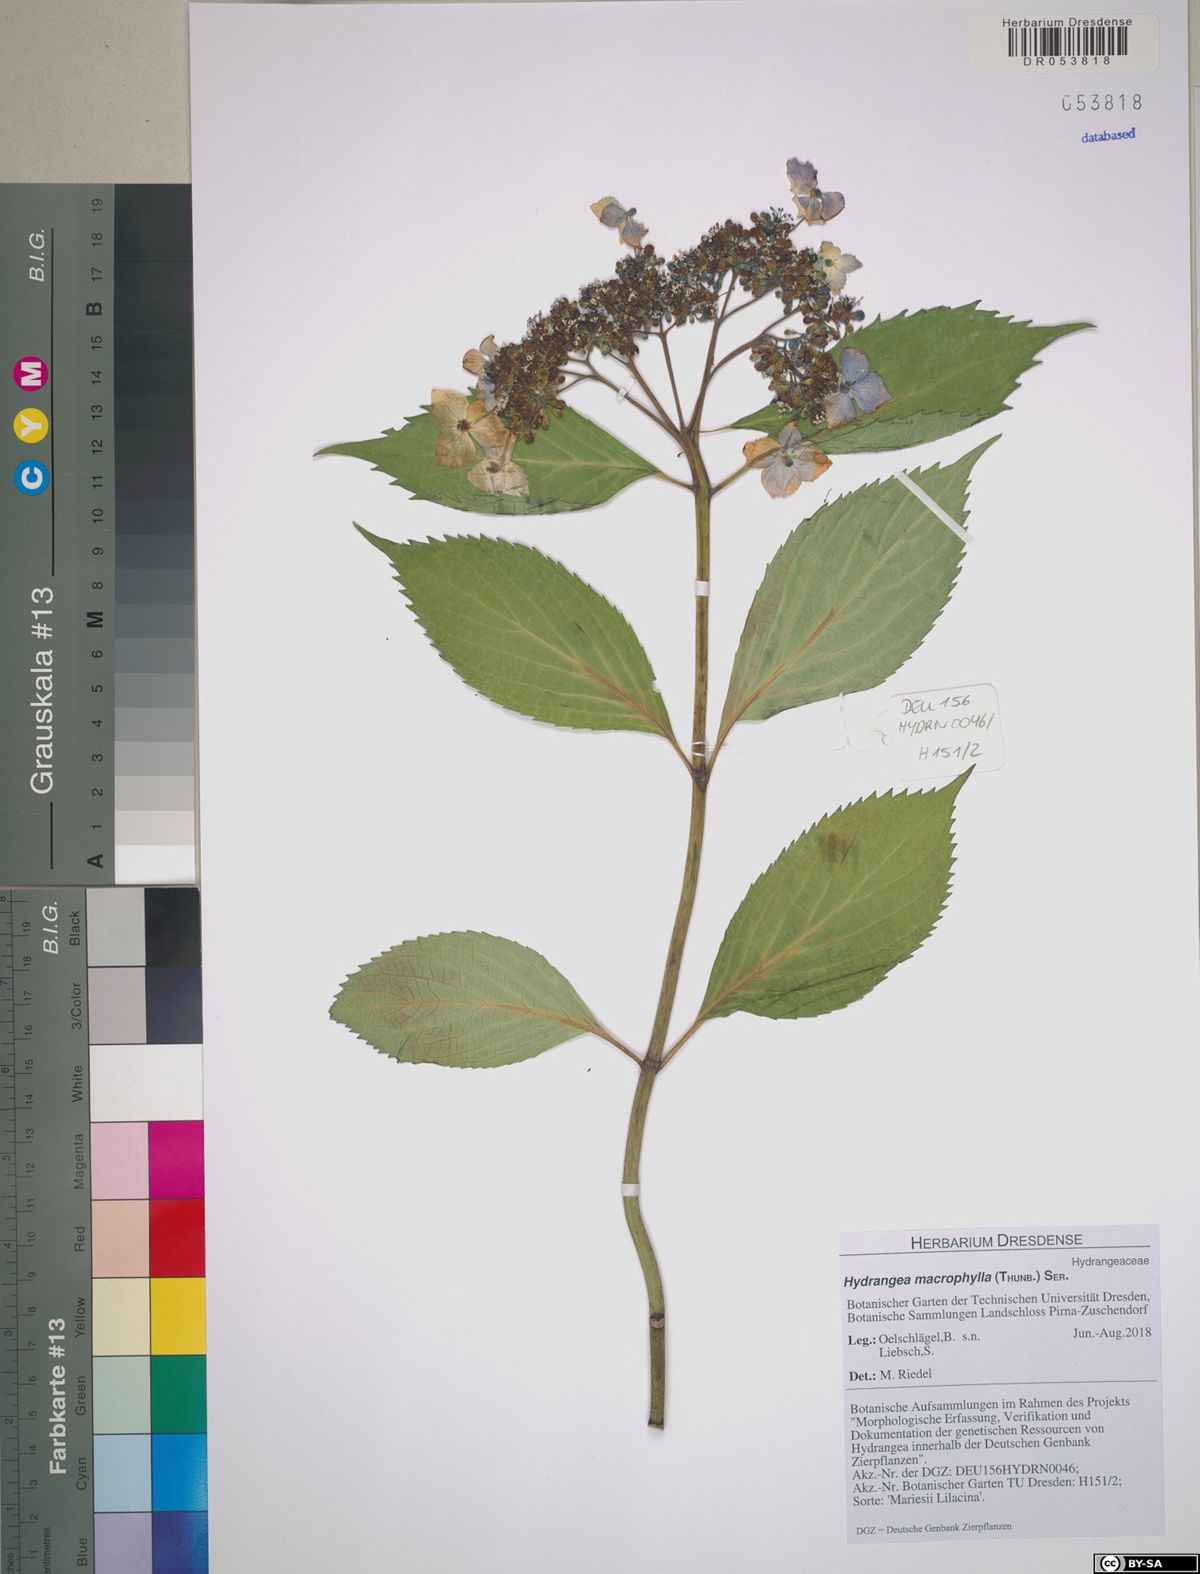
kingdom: Plantae
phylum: Tracheophyta
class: Magnoliopsida
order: Cornales
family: Hydrangeaceae
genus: Hydrangea
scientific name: Hydrangea macrophylla
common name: Hydrangea
